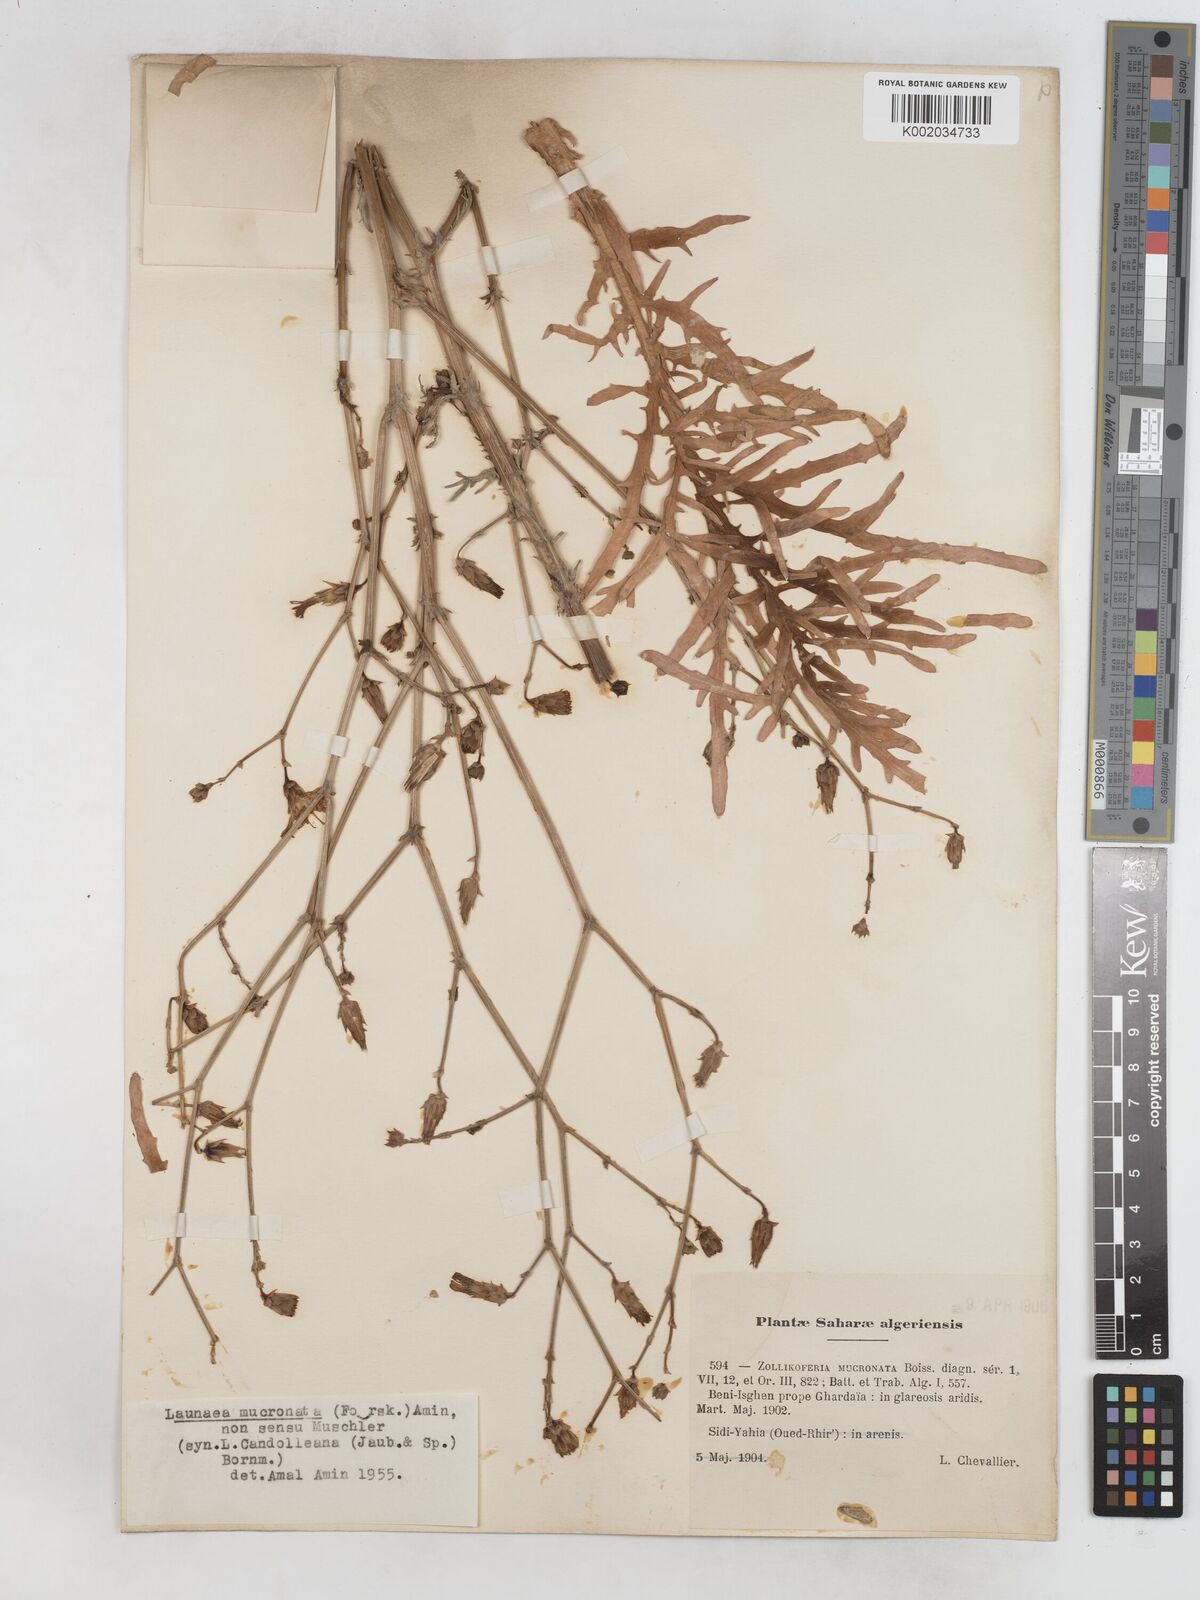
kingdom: Plantae
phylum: Tracheophyta
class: Magnoliopsida
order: Asterales
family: Asteraceae
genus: Launaea
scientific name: Launaea mucronata
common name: Mucronate launea
